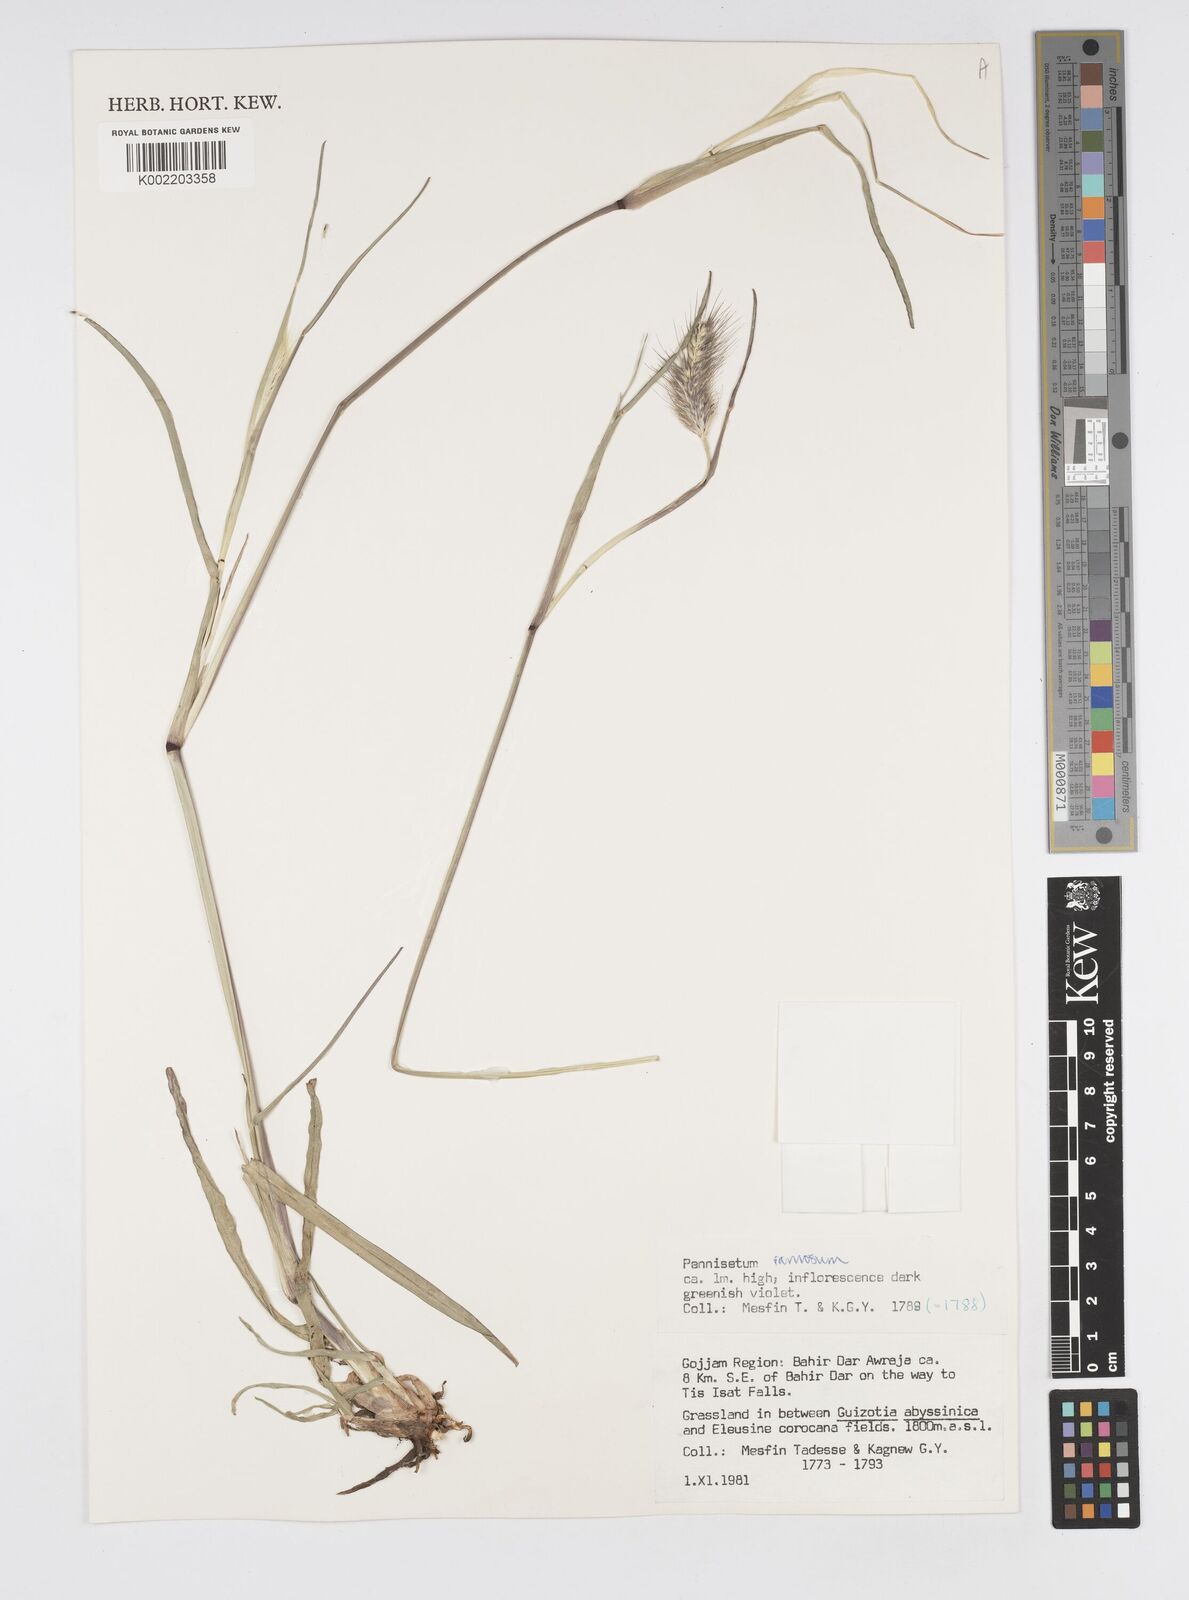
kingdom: Plantae
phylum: Tracheophyta
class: Liliopsida
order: Poales
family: Poaceae
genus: Cenchrus
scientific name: Cenchrus ramosus
